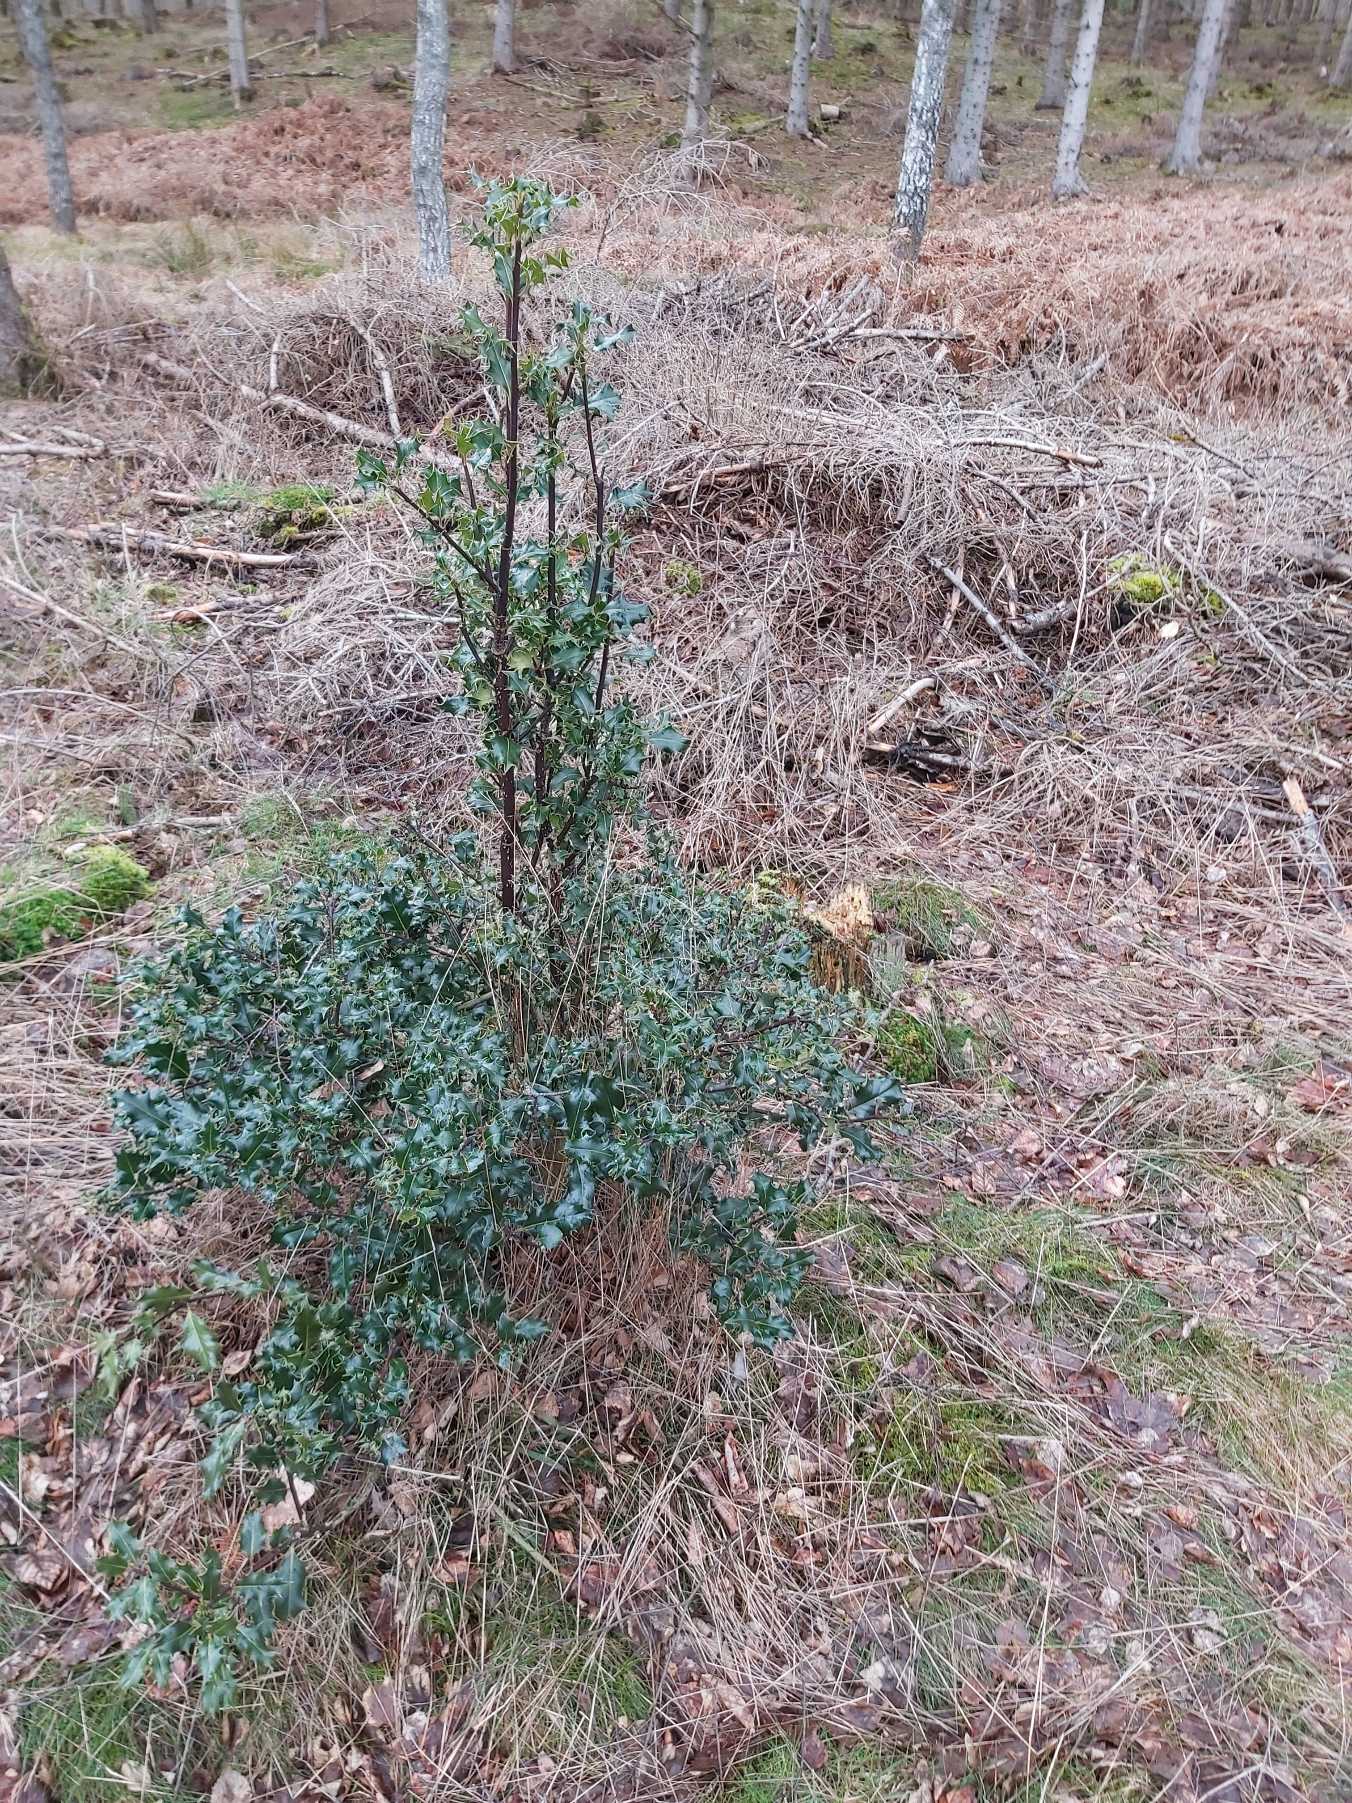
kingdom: Plantae
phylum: Tracheophyta
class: Magnoliopsida
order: Aquifoliales
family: Aquifoliaceae
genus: Ilex
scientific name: Ilex aquifolium
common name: Kristtorn
